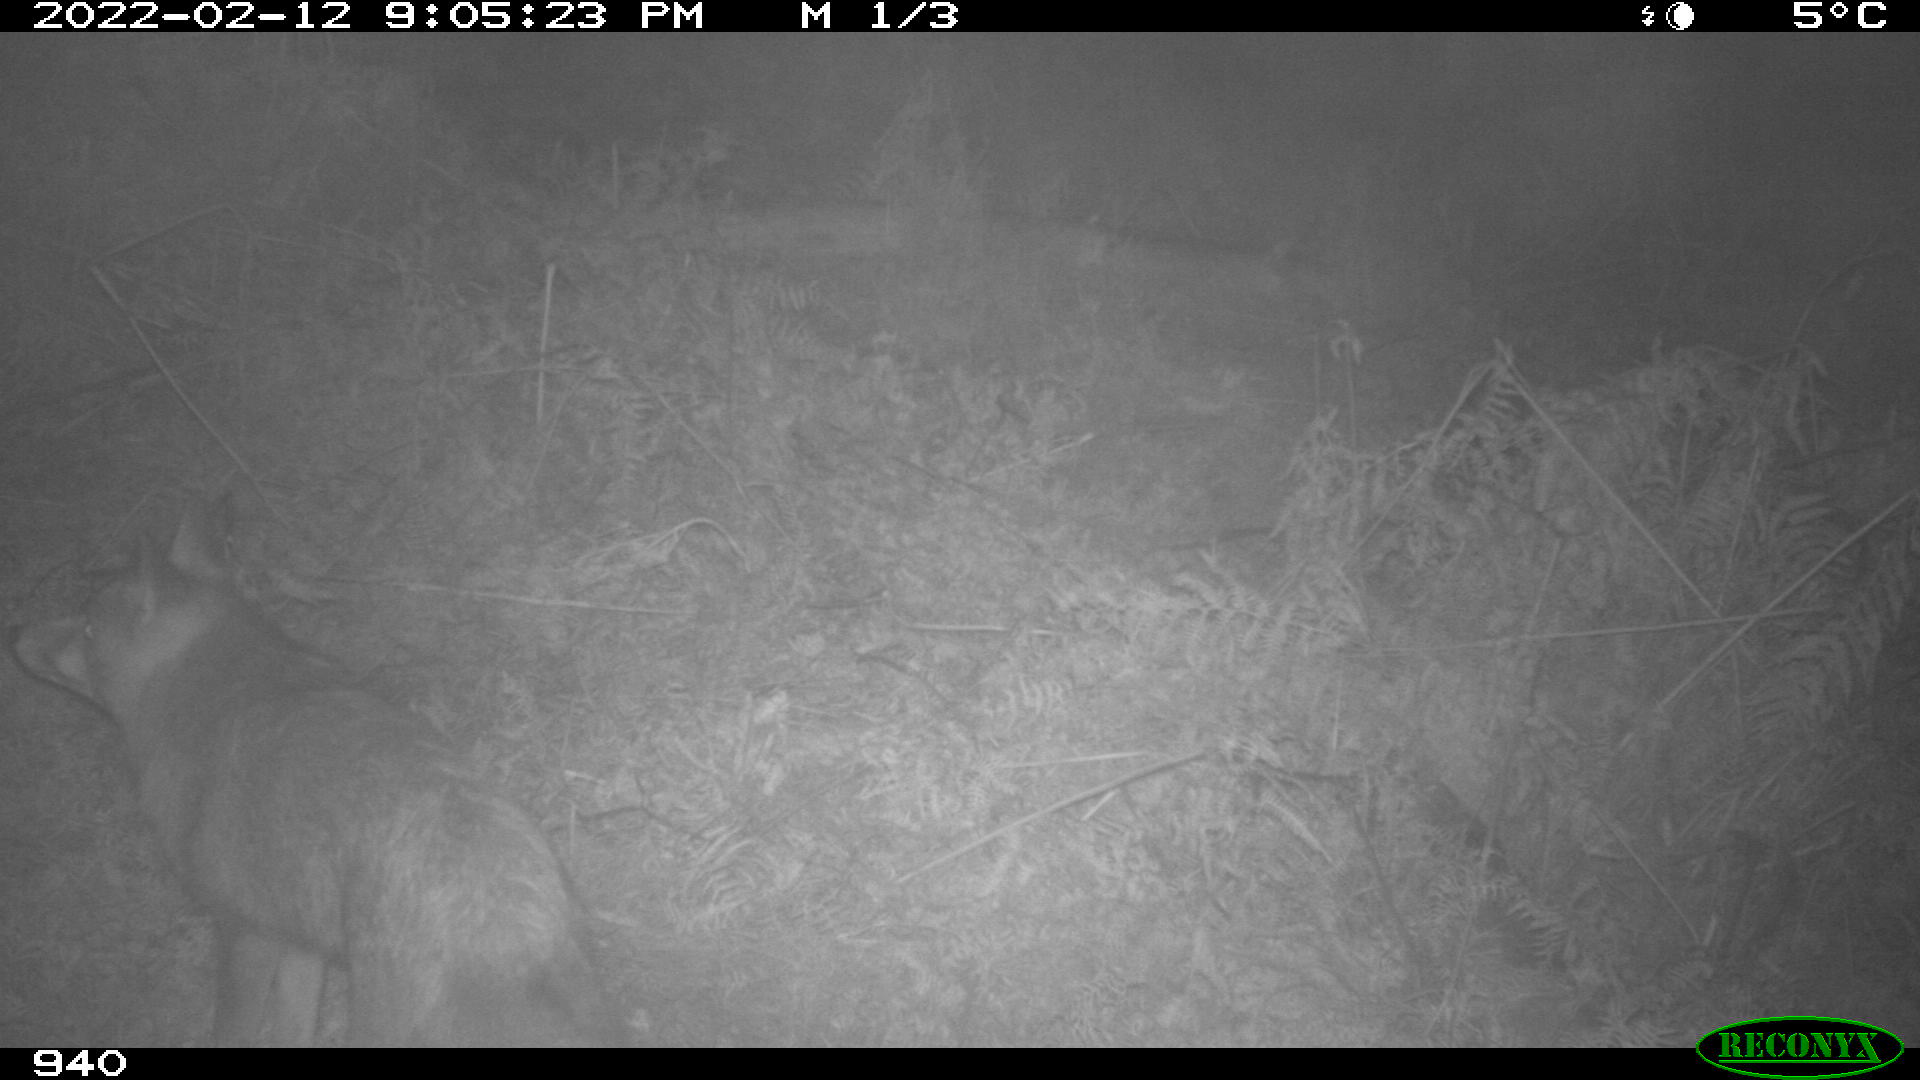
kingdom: Animalia
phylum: Chordata
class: Mammalia
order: Carnivora
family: Canidae
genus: Vulpes
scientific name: Vulpes vulpes
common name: Red fox
